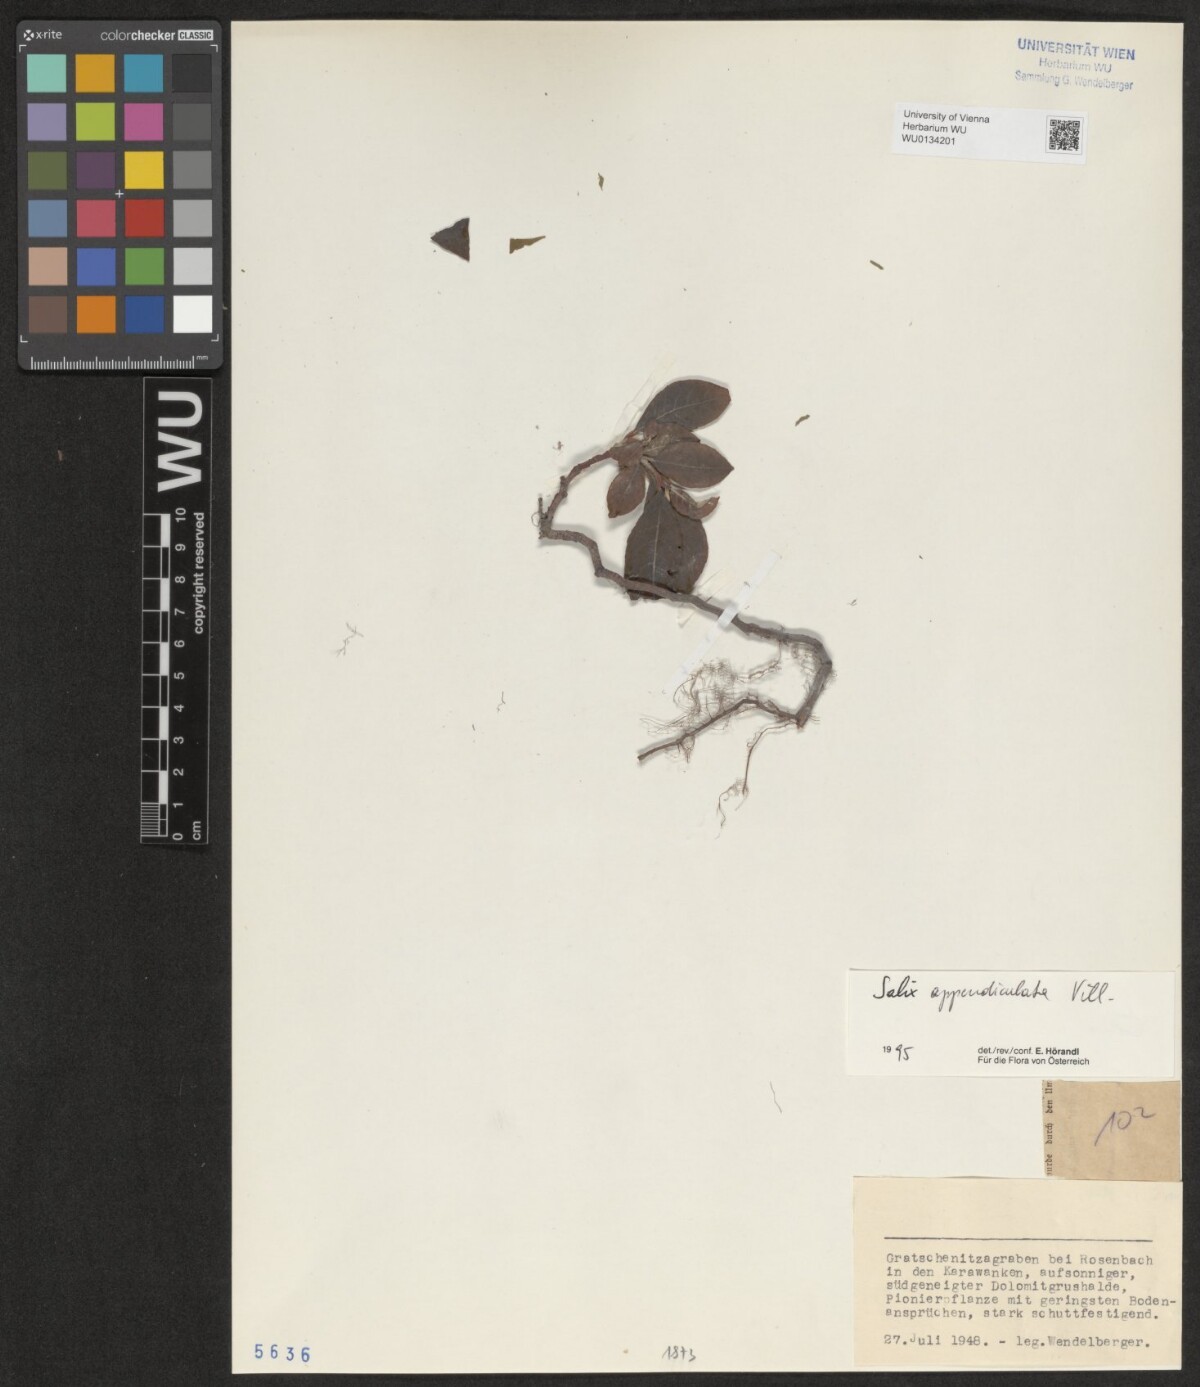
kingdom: Plantae
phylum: Tracheophyta
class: Magnoliopsida
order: Malpighiales
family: Salicaceae
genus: Salix
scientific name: Salix appendiculata
